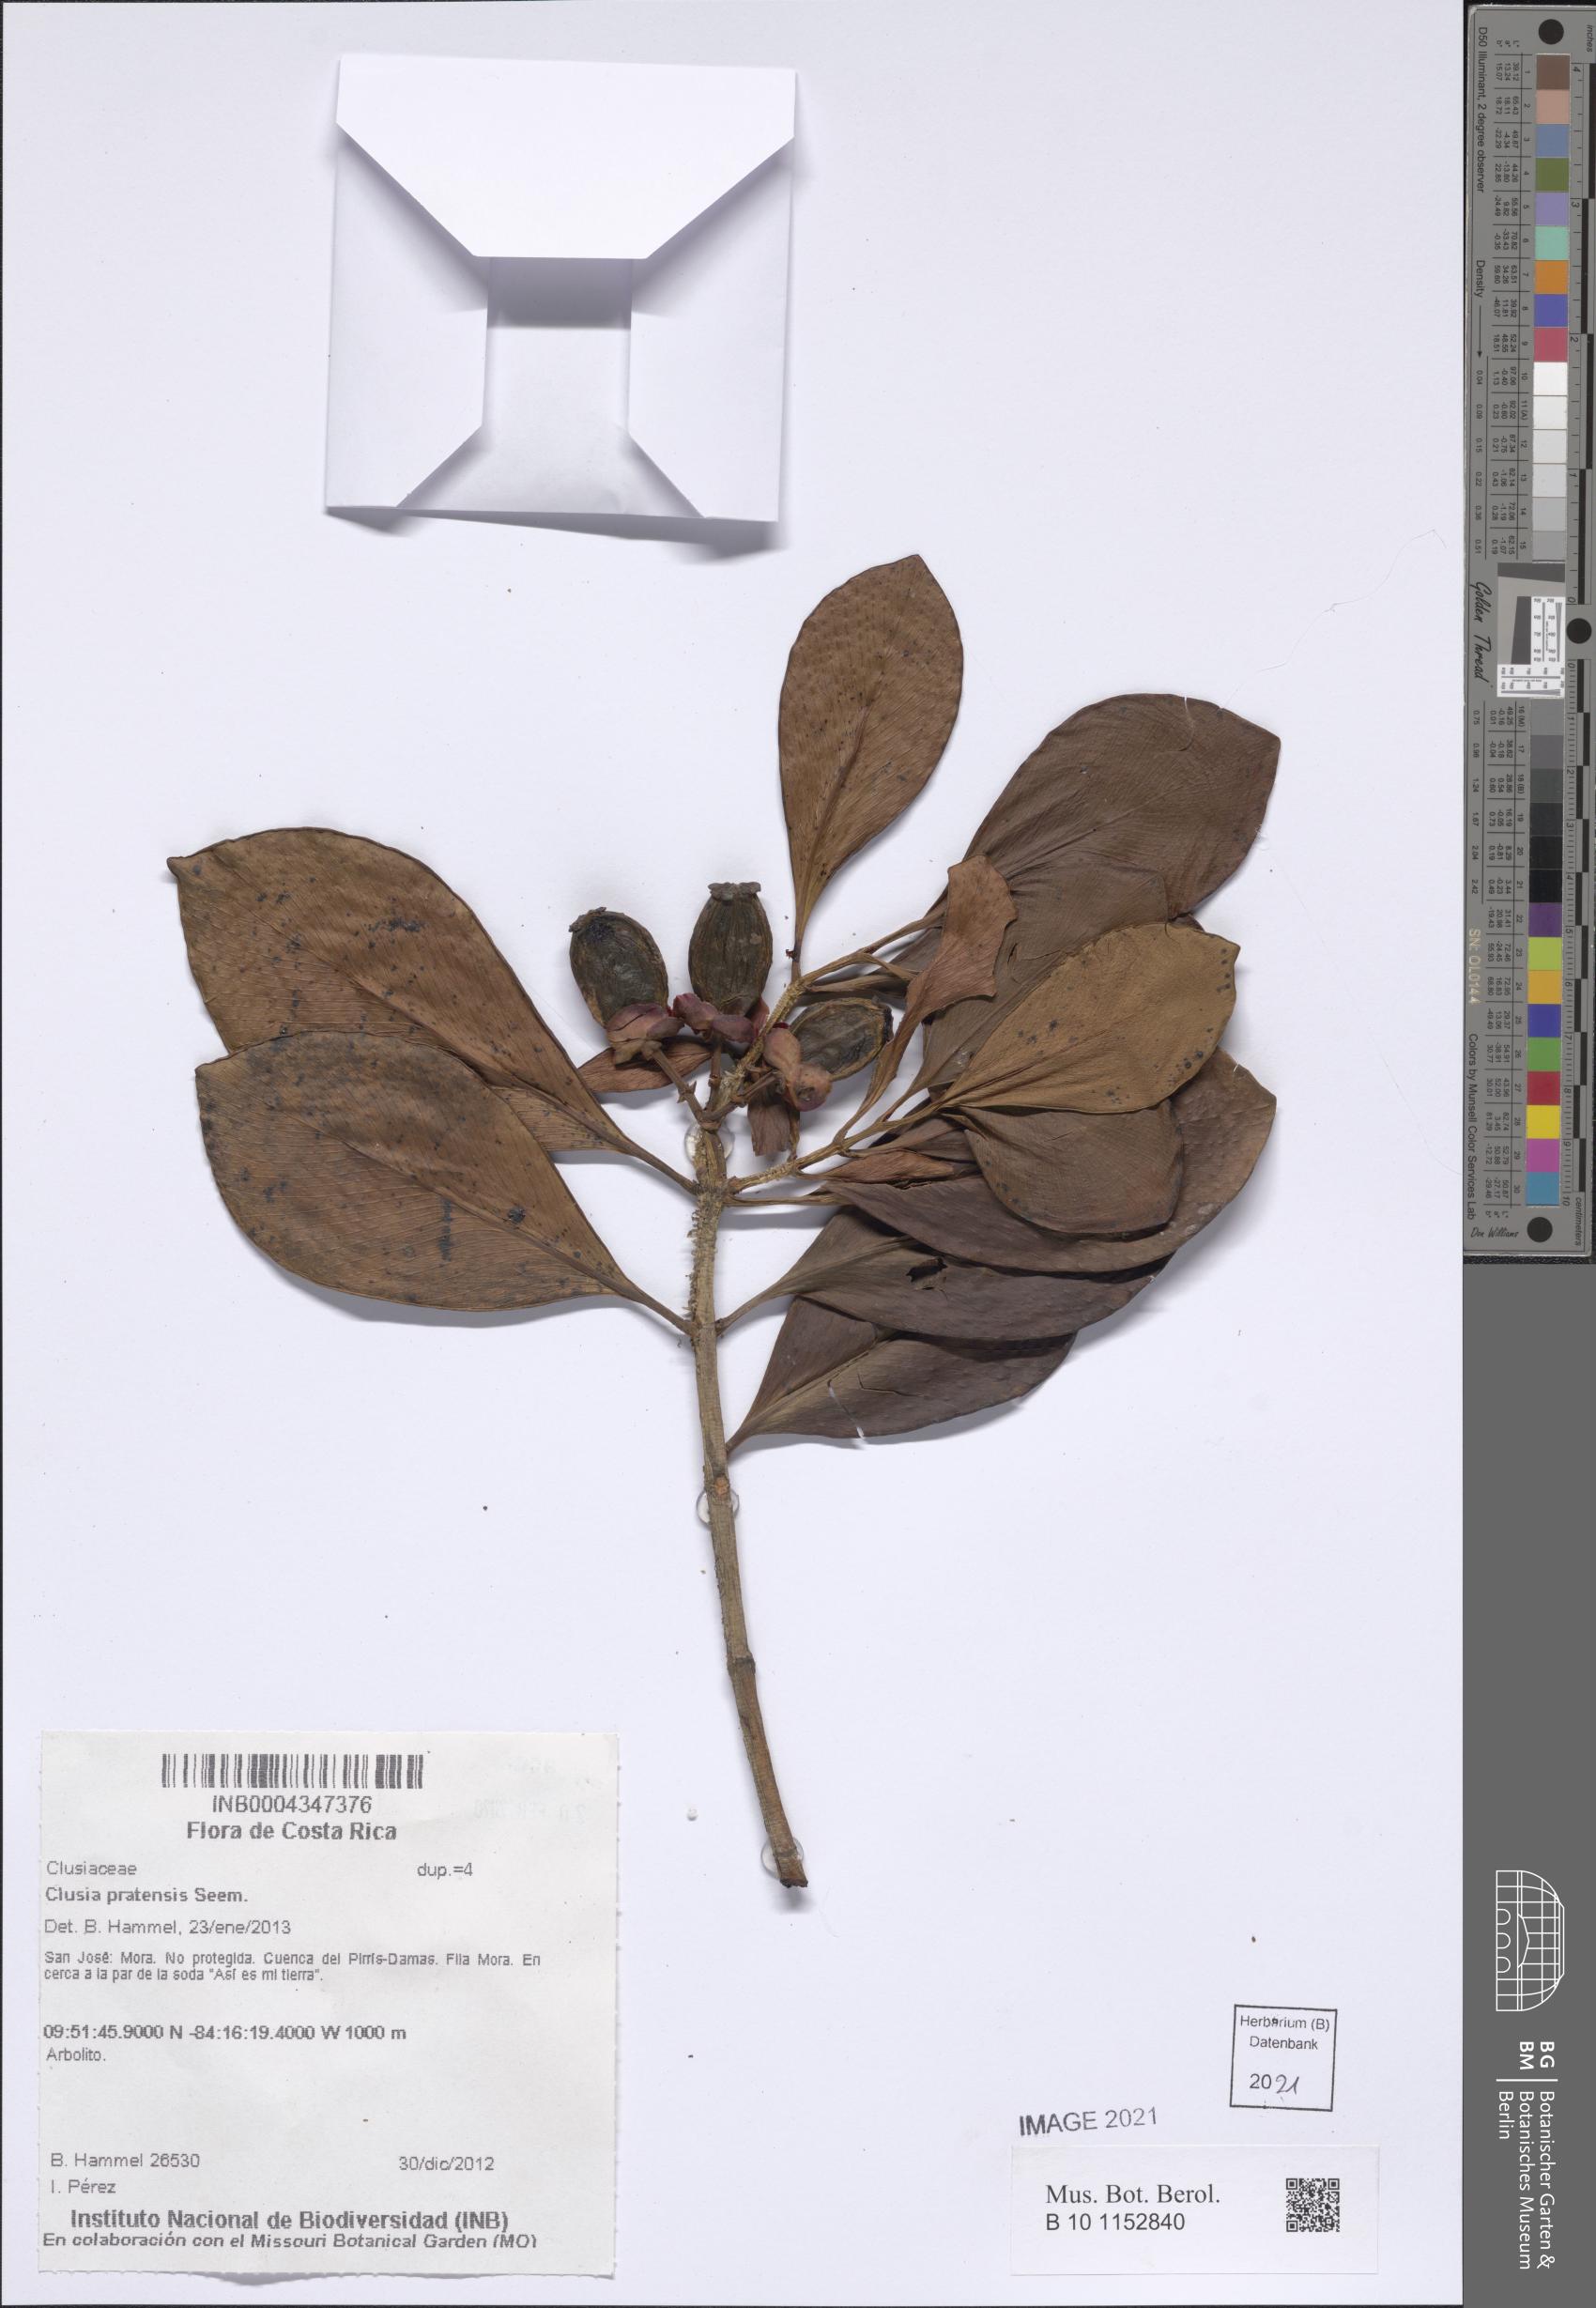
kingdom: Plantae
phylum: Tracheophyta
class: Magnoliopsida
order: Malpighiales
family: Clusiaceae
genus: Clusia
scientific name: Clusia minor
